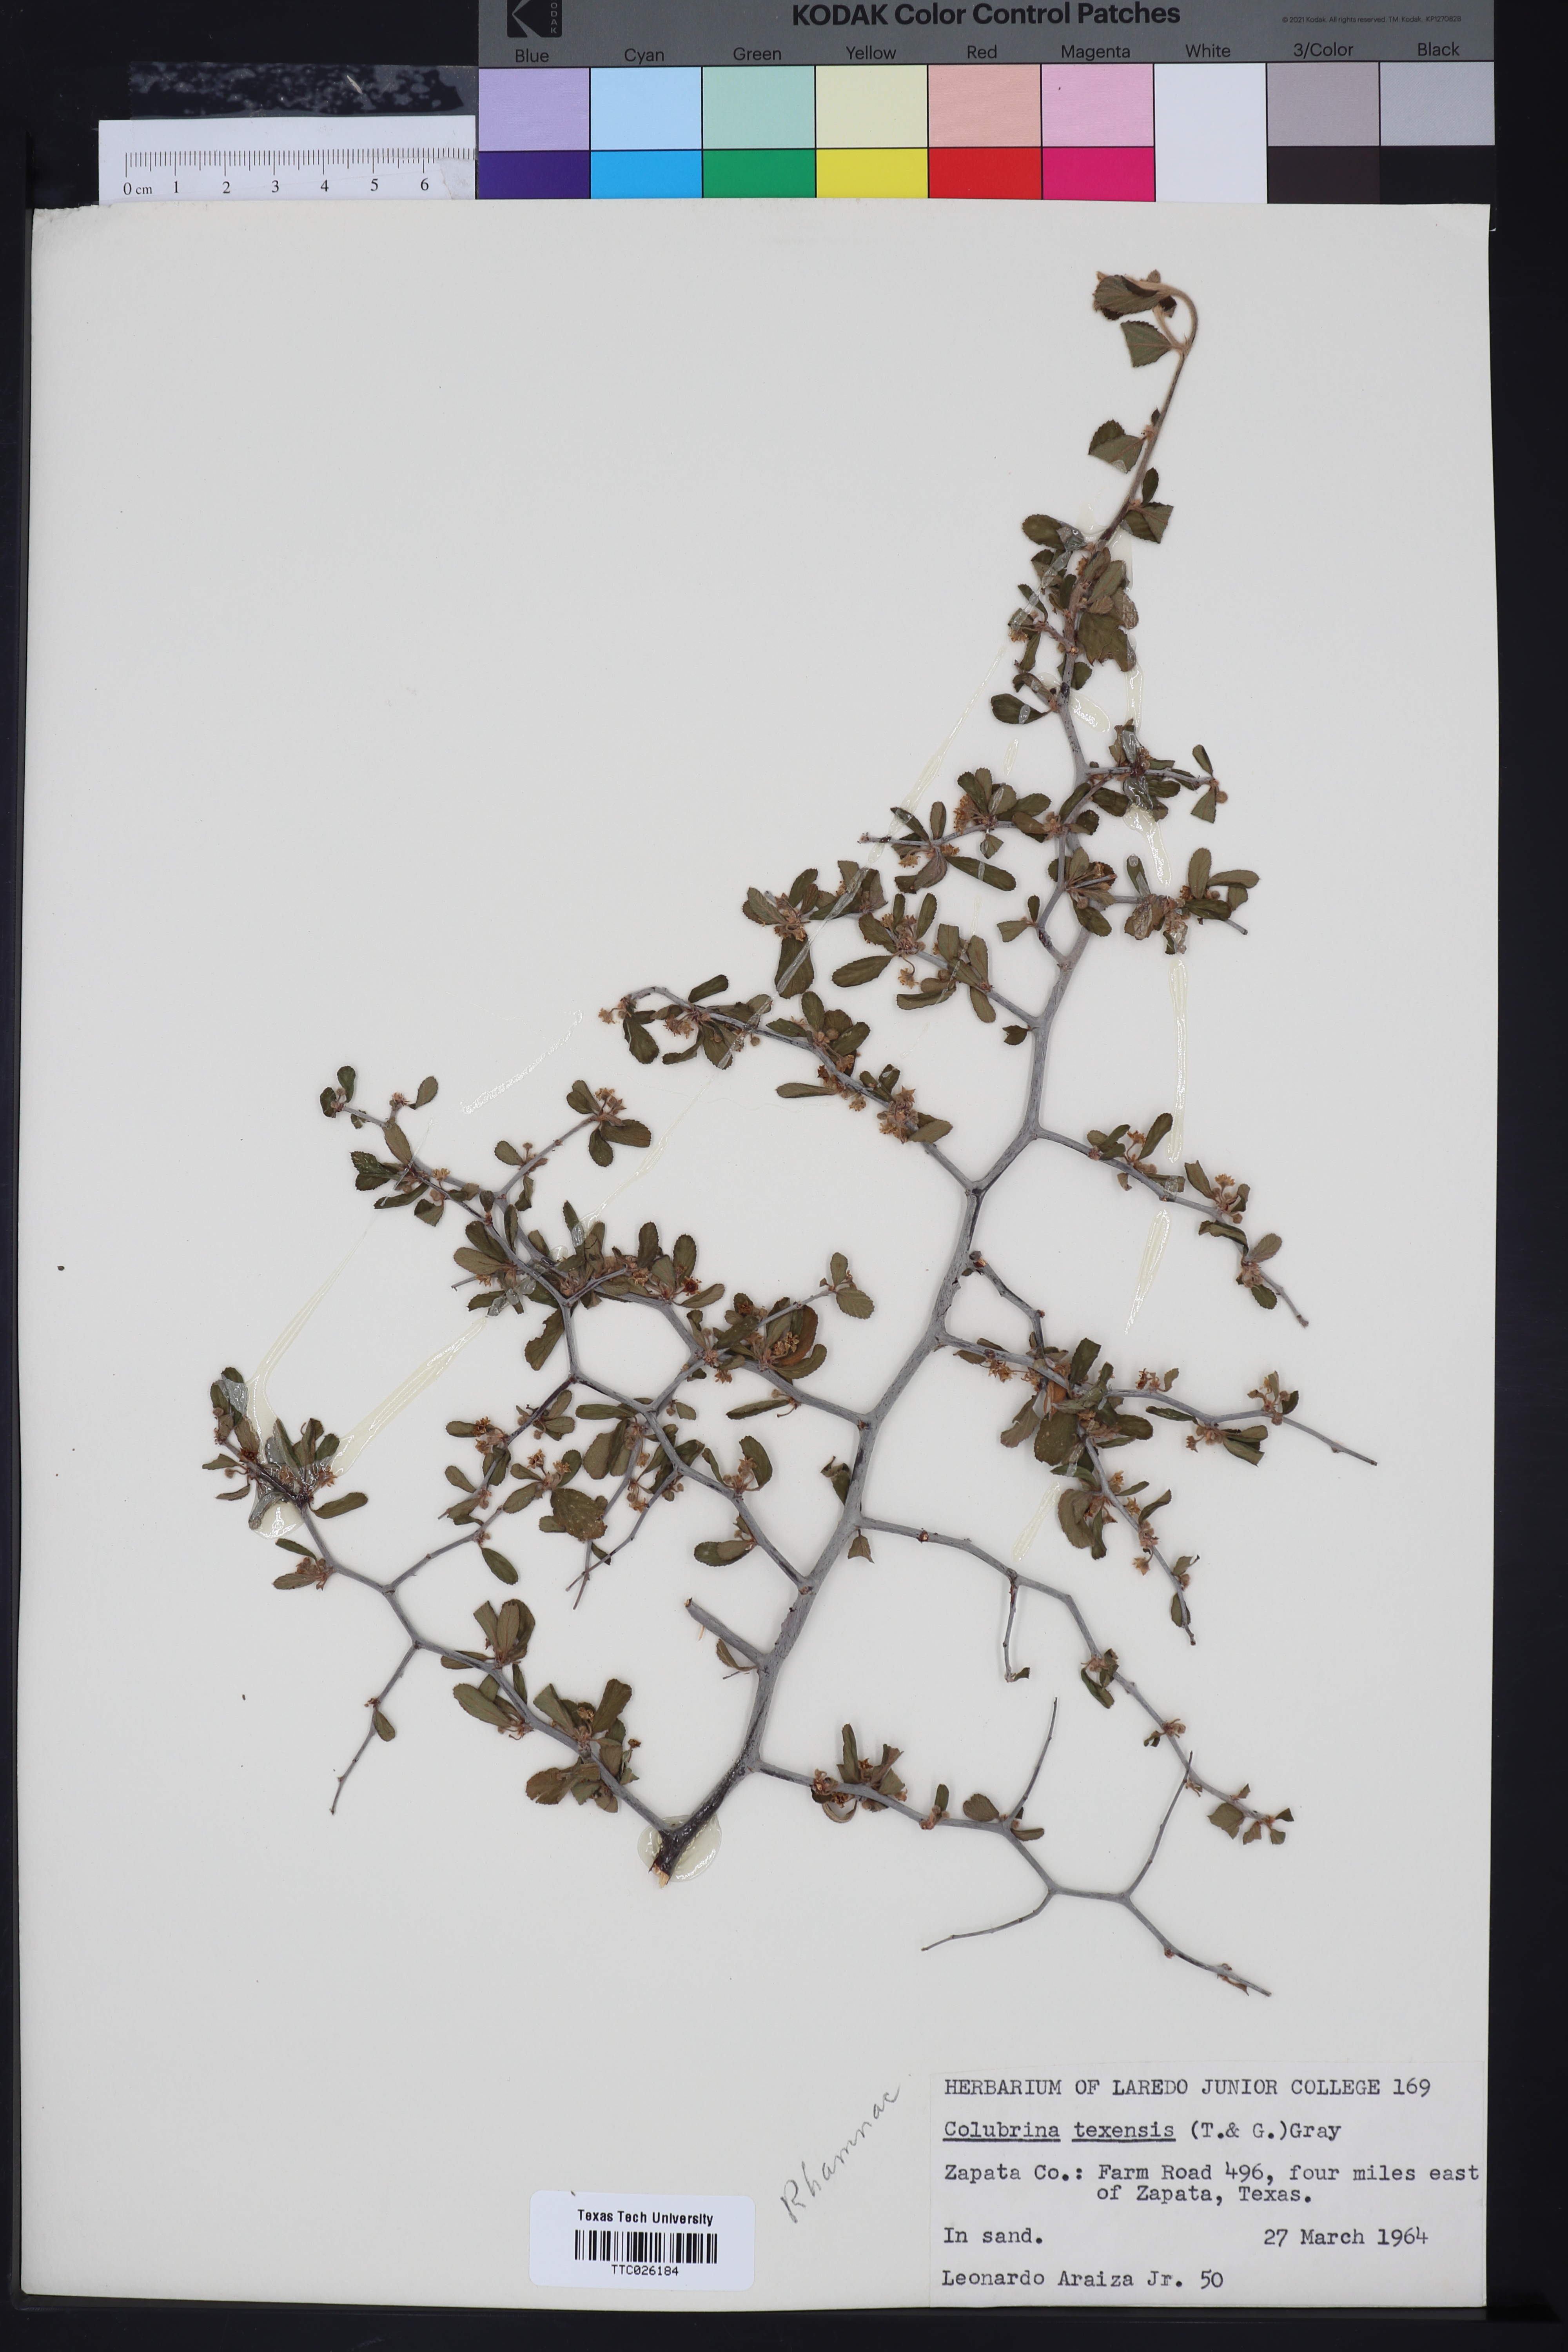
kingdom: Plantae
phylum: Tracheophyta
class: Magnoliopsida
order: Rosales
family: Rhamnaceae
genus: Colubrina
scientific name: Colubrina texensis
